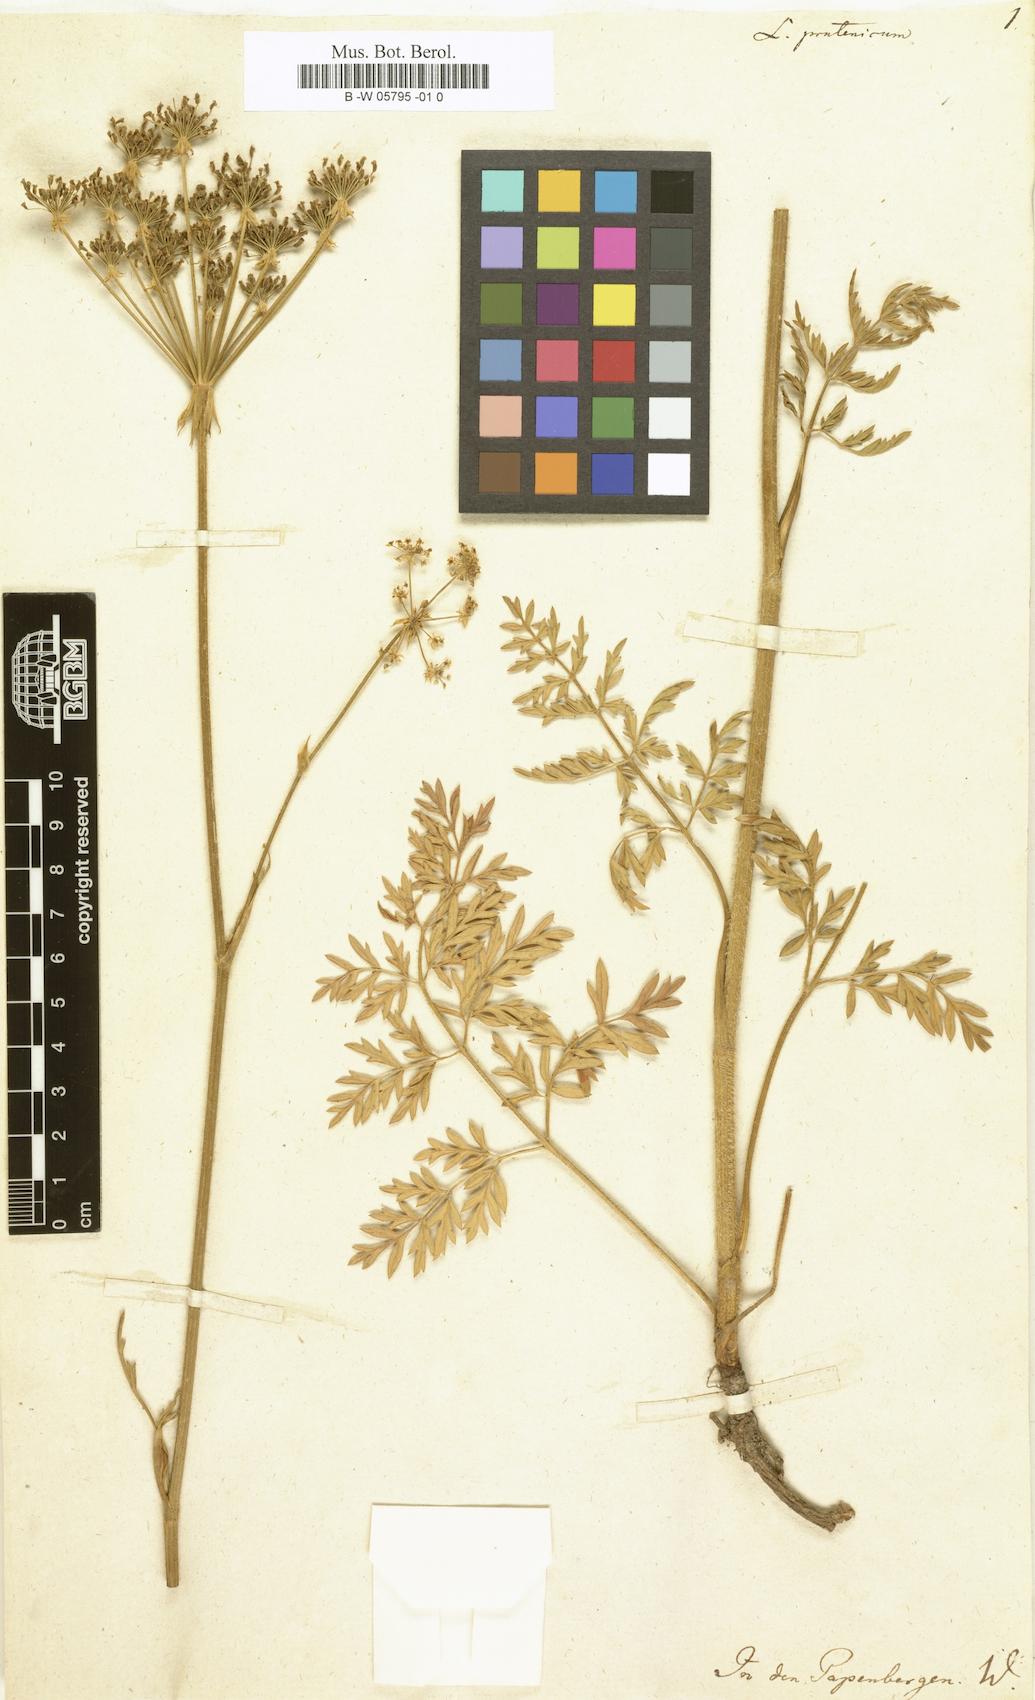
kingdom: Plantae
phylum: Tracheophyta
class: Magnoliopsida
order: Apiales
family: Apiaceae
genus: Laserpitium
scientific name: Laserpitium aureum
